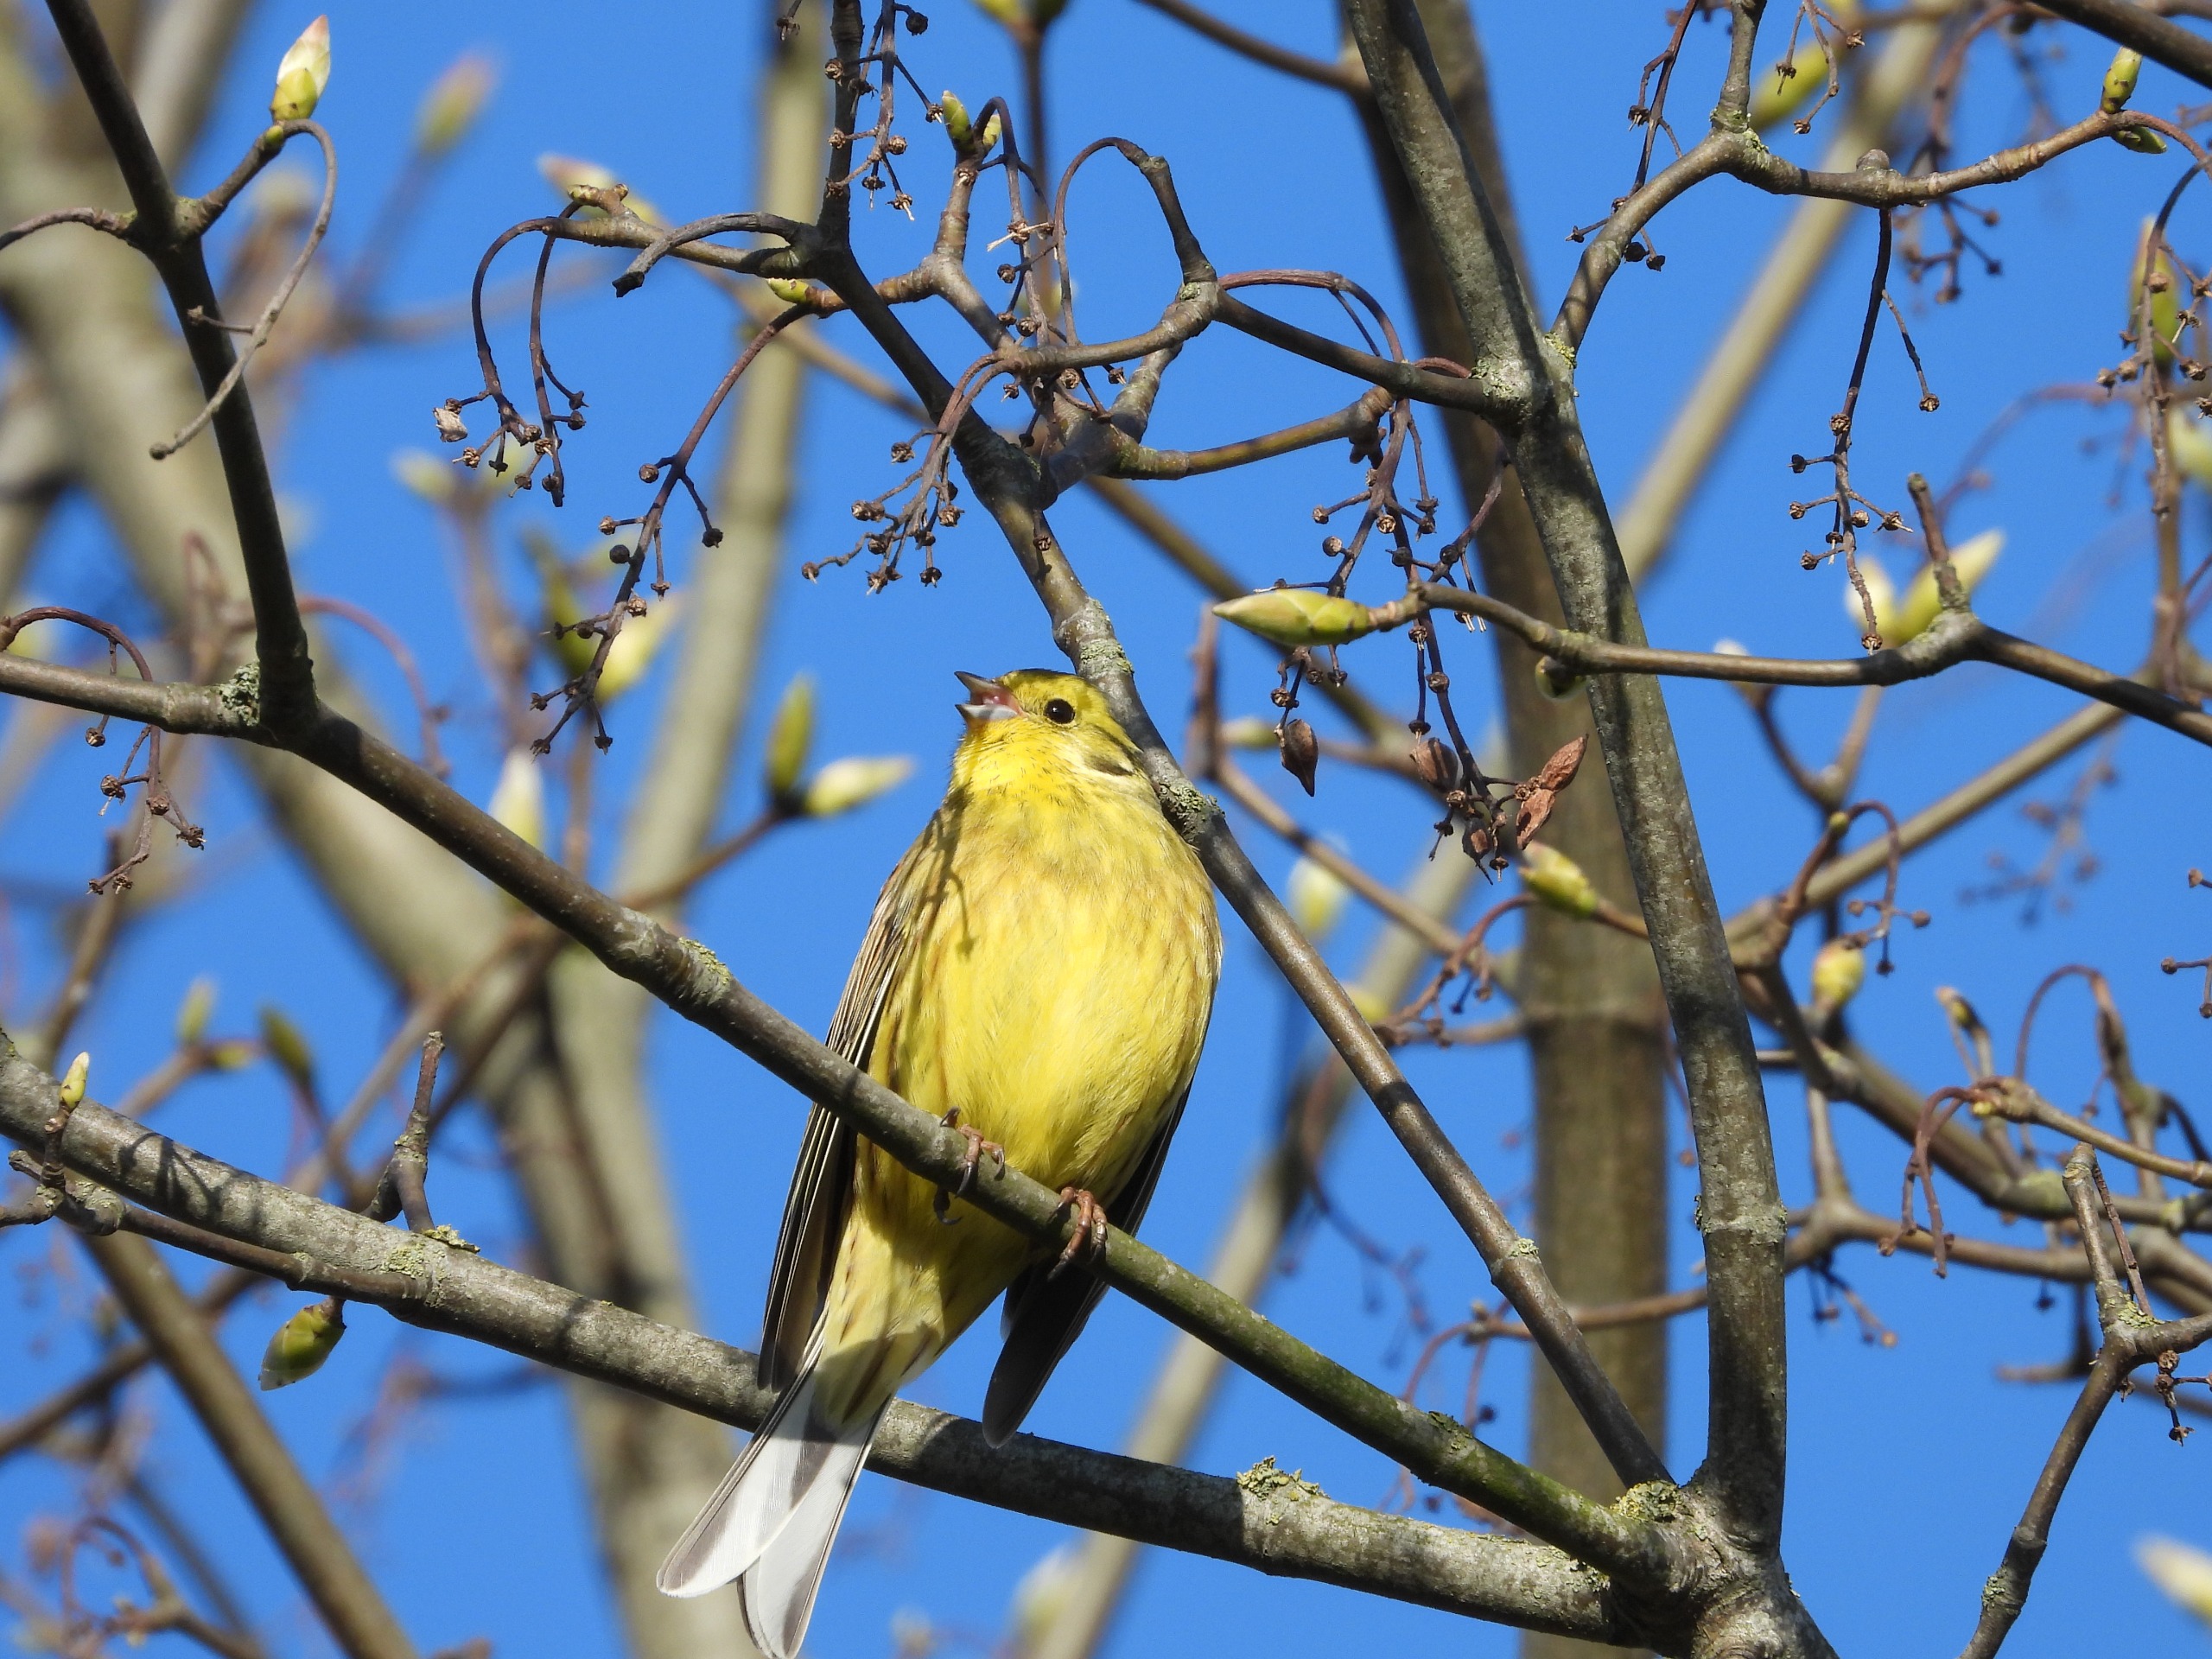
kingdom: Animalia
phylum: Chordata
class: Aves
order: Passeriformes
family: Emberizidae
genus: Emberiza
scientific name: Emberiza citrinella
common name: Gulspurv
